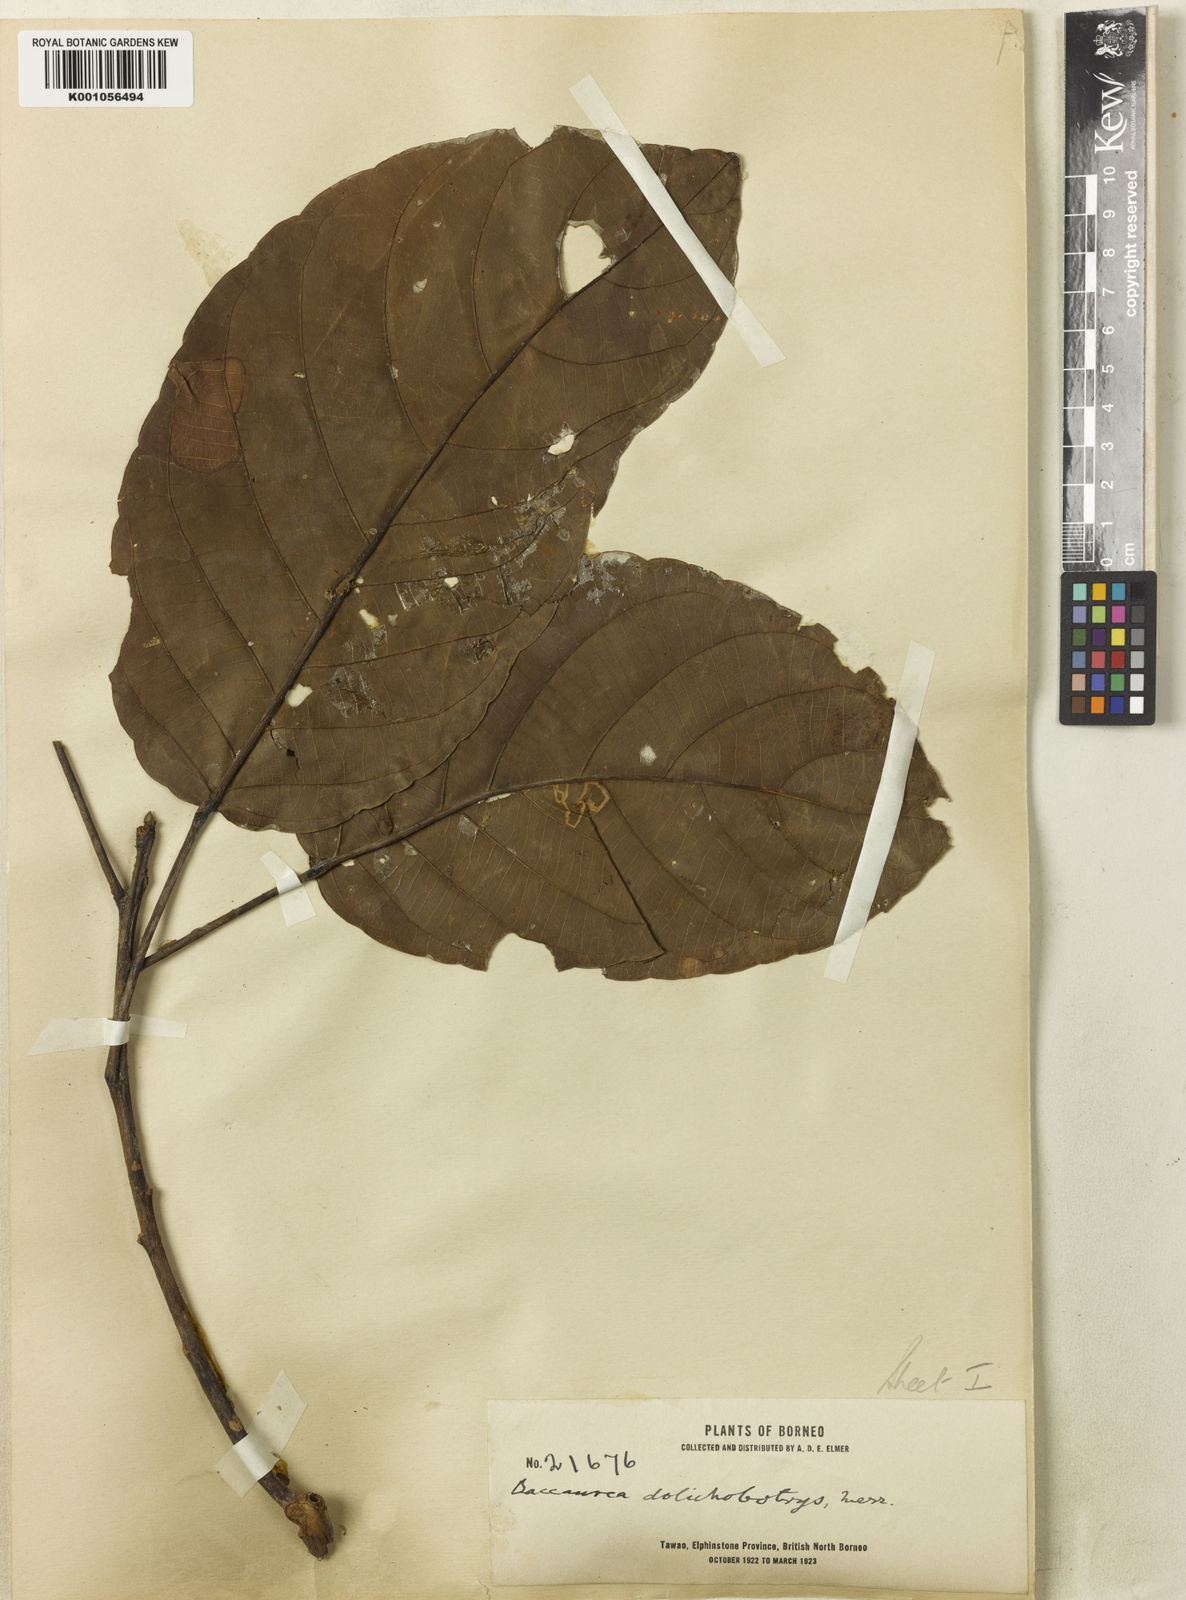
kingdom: Plantae
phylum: Tracheophyta
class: Magnoliopsida
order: Malpighiales
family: Phyllanthaceae
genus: Baccaurea
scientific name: Baccaurea polyneura
